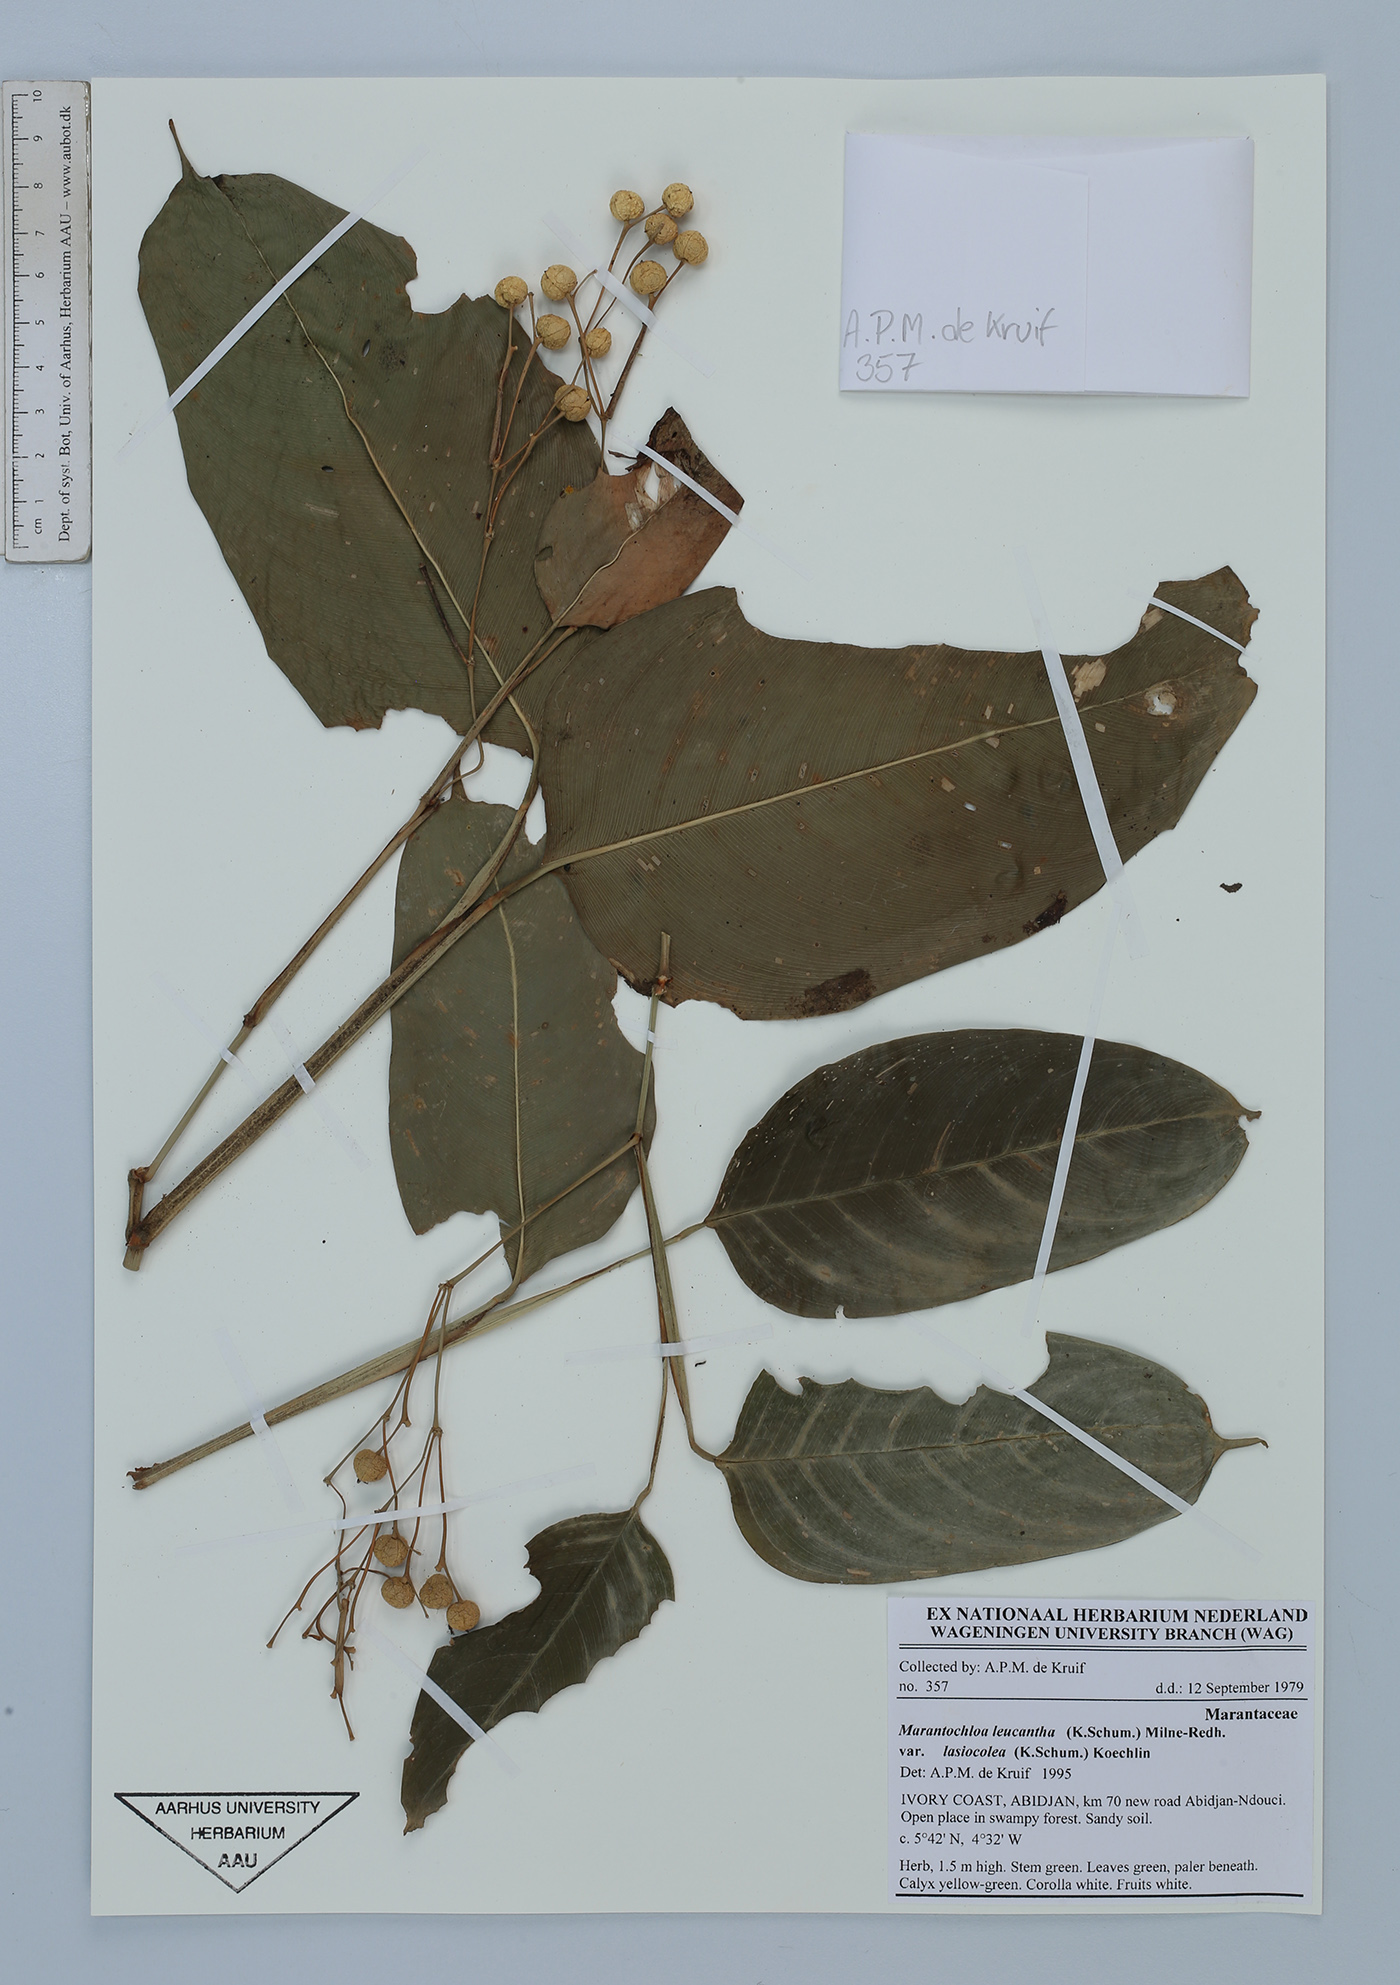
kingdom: Plantae
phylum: Tracheophyta
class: Liliopsida
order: Zingiberales
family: Marantaceae
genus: Marantochloa
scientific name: Marantochloa leucantha
